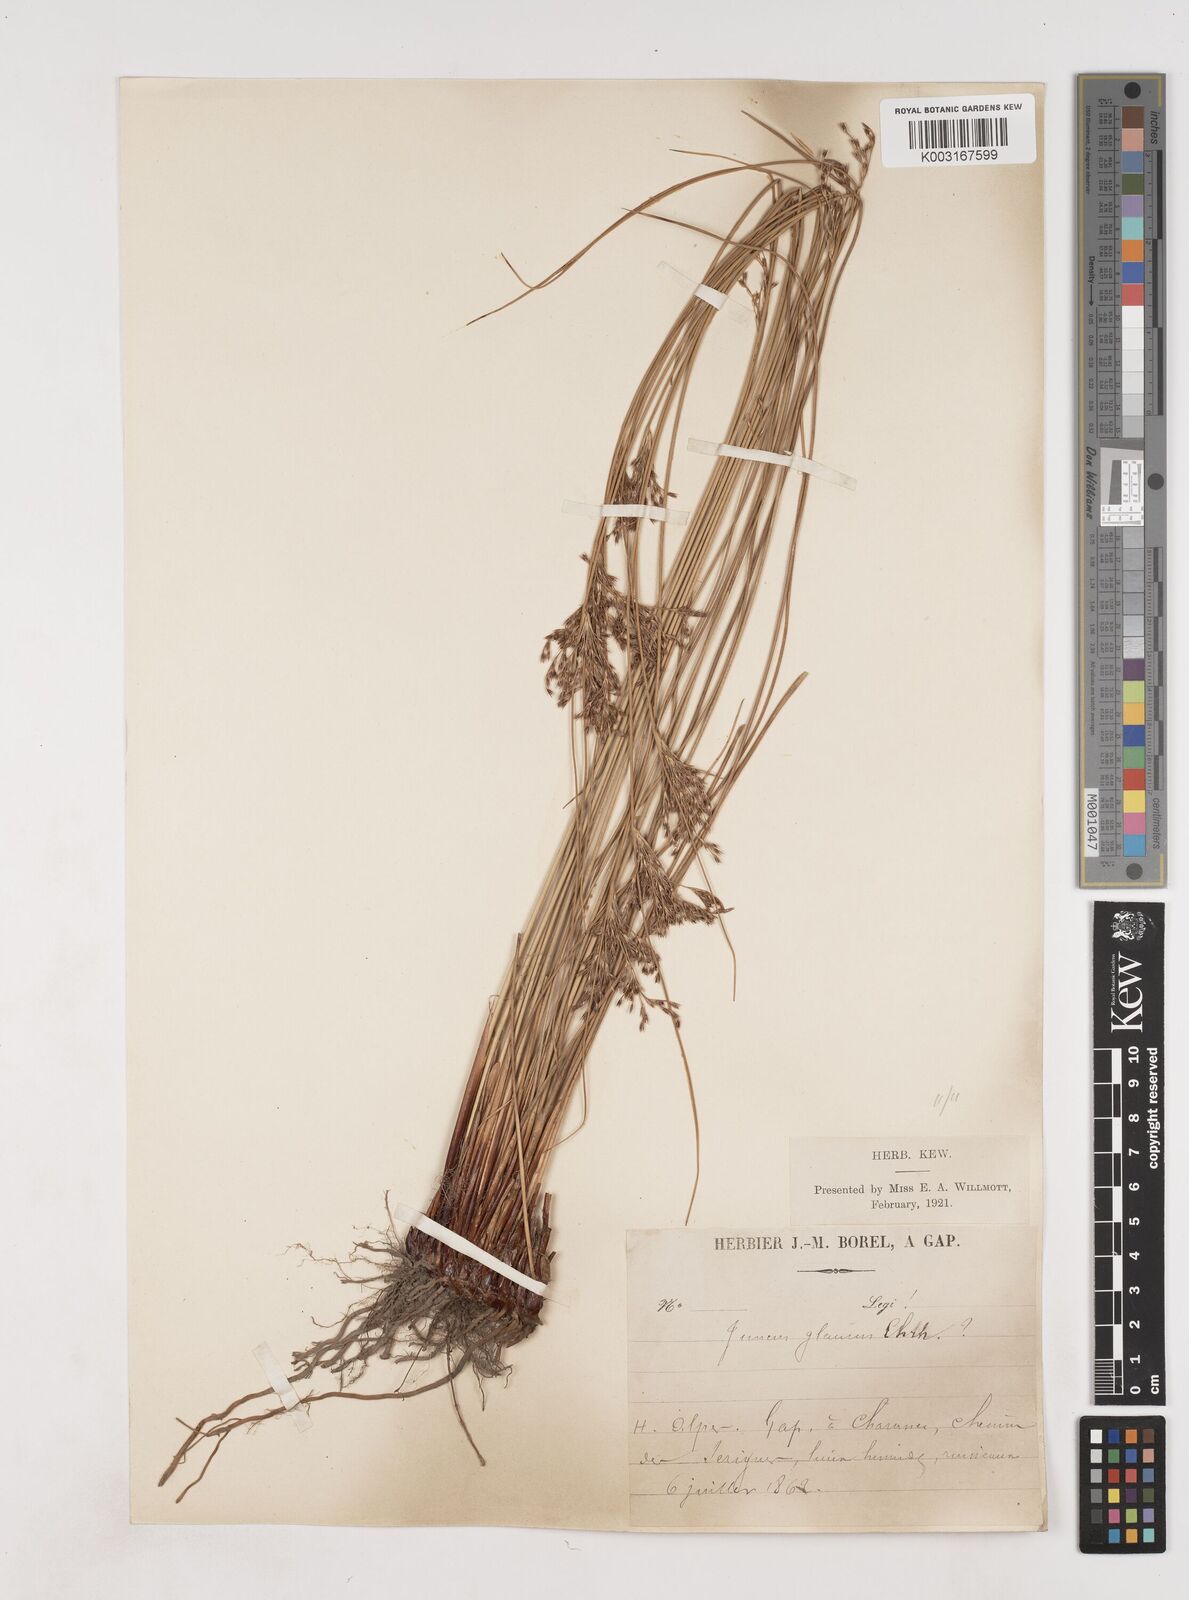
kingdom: Plantae
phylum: Tracheophyta
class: Liliopsida
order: Poales
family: Juncaceae
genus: Juncus
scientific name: Juncus inflexus
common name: Hard rush
